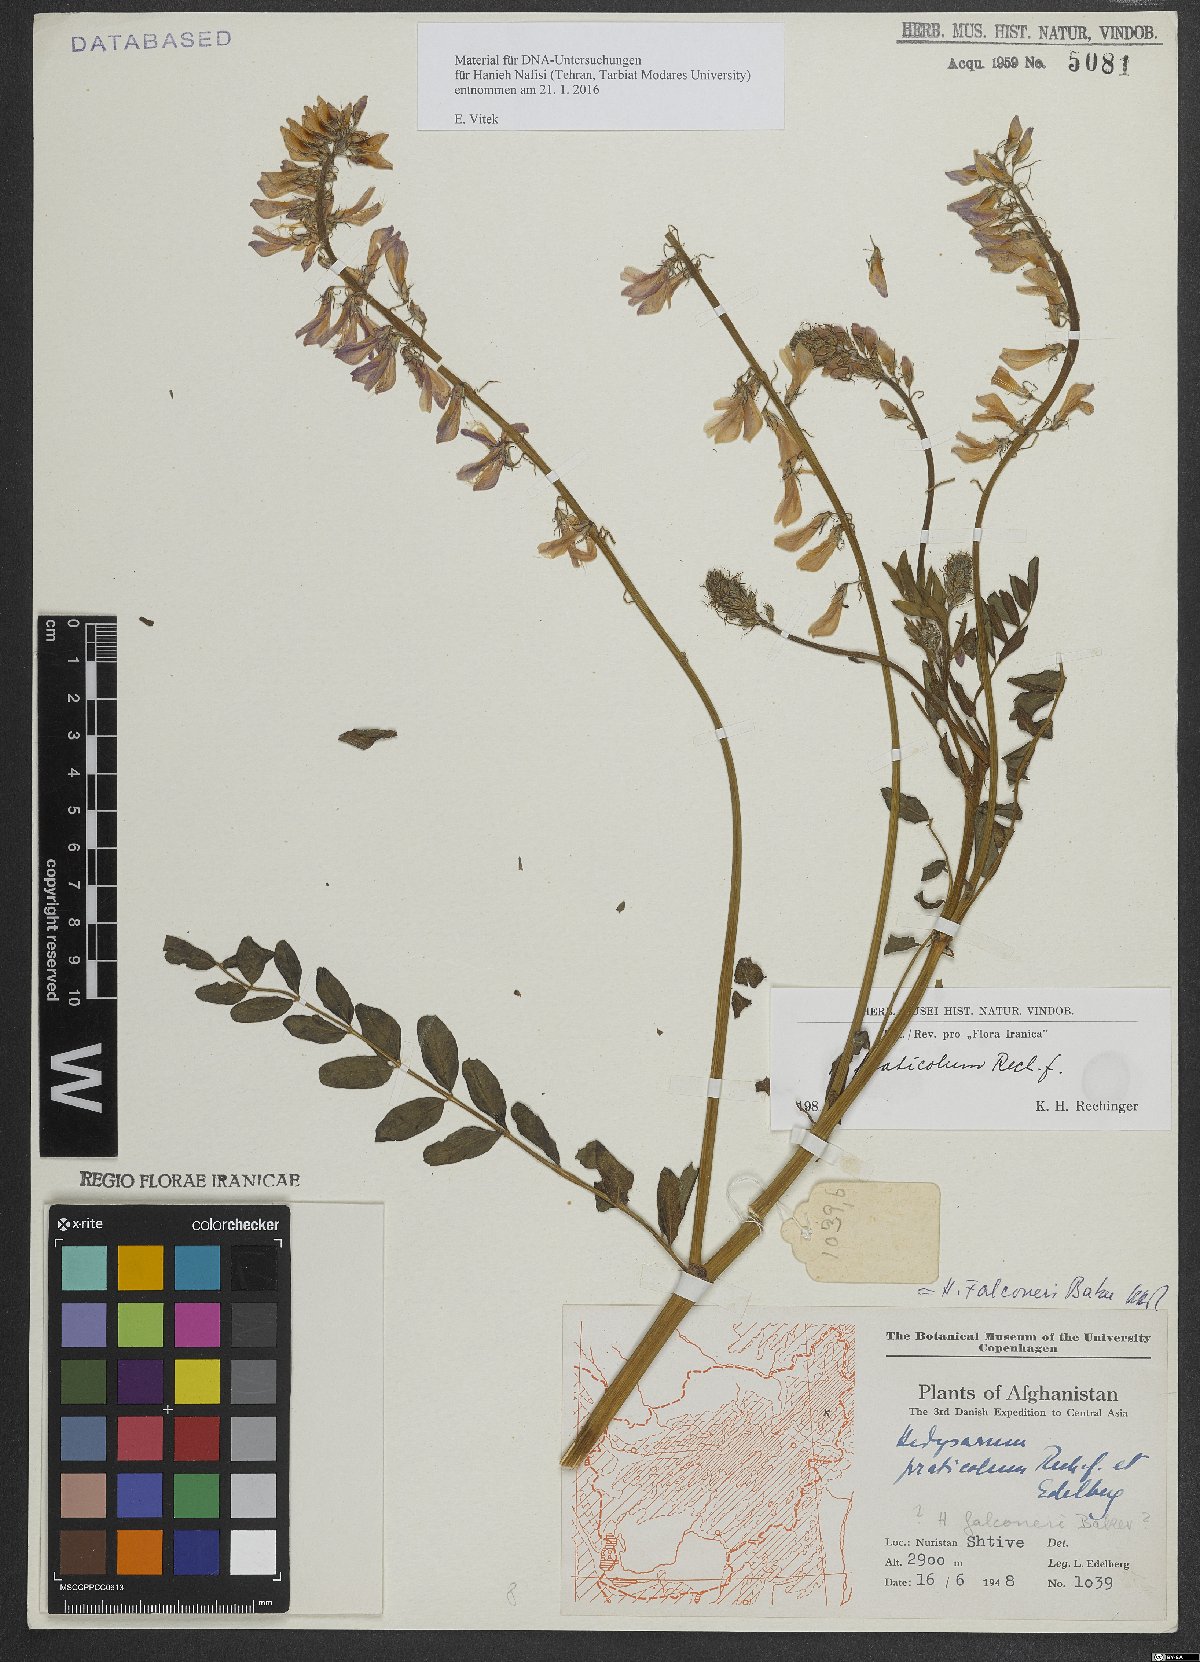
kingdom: Plantae
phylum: Tracheophyta
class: Magnoliopsida
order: Fabales
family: Fabaceae
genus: Hedysarum
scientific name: Hedysarum praticola
